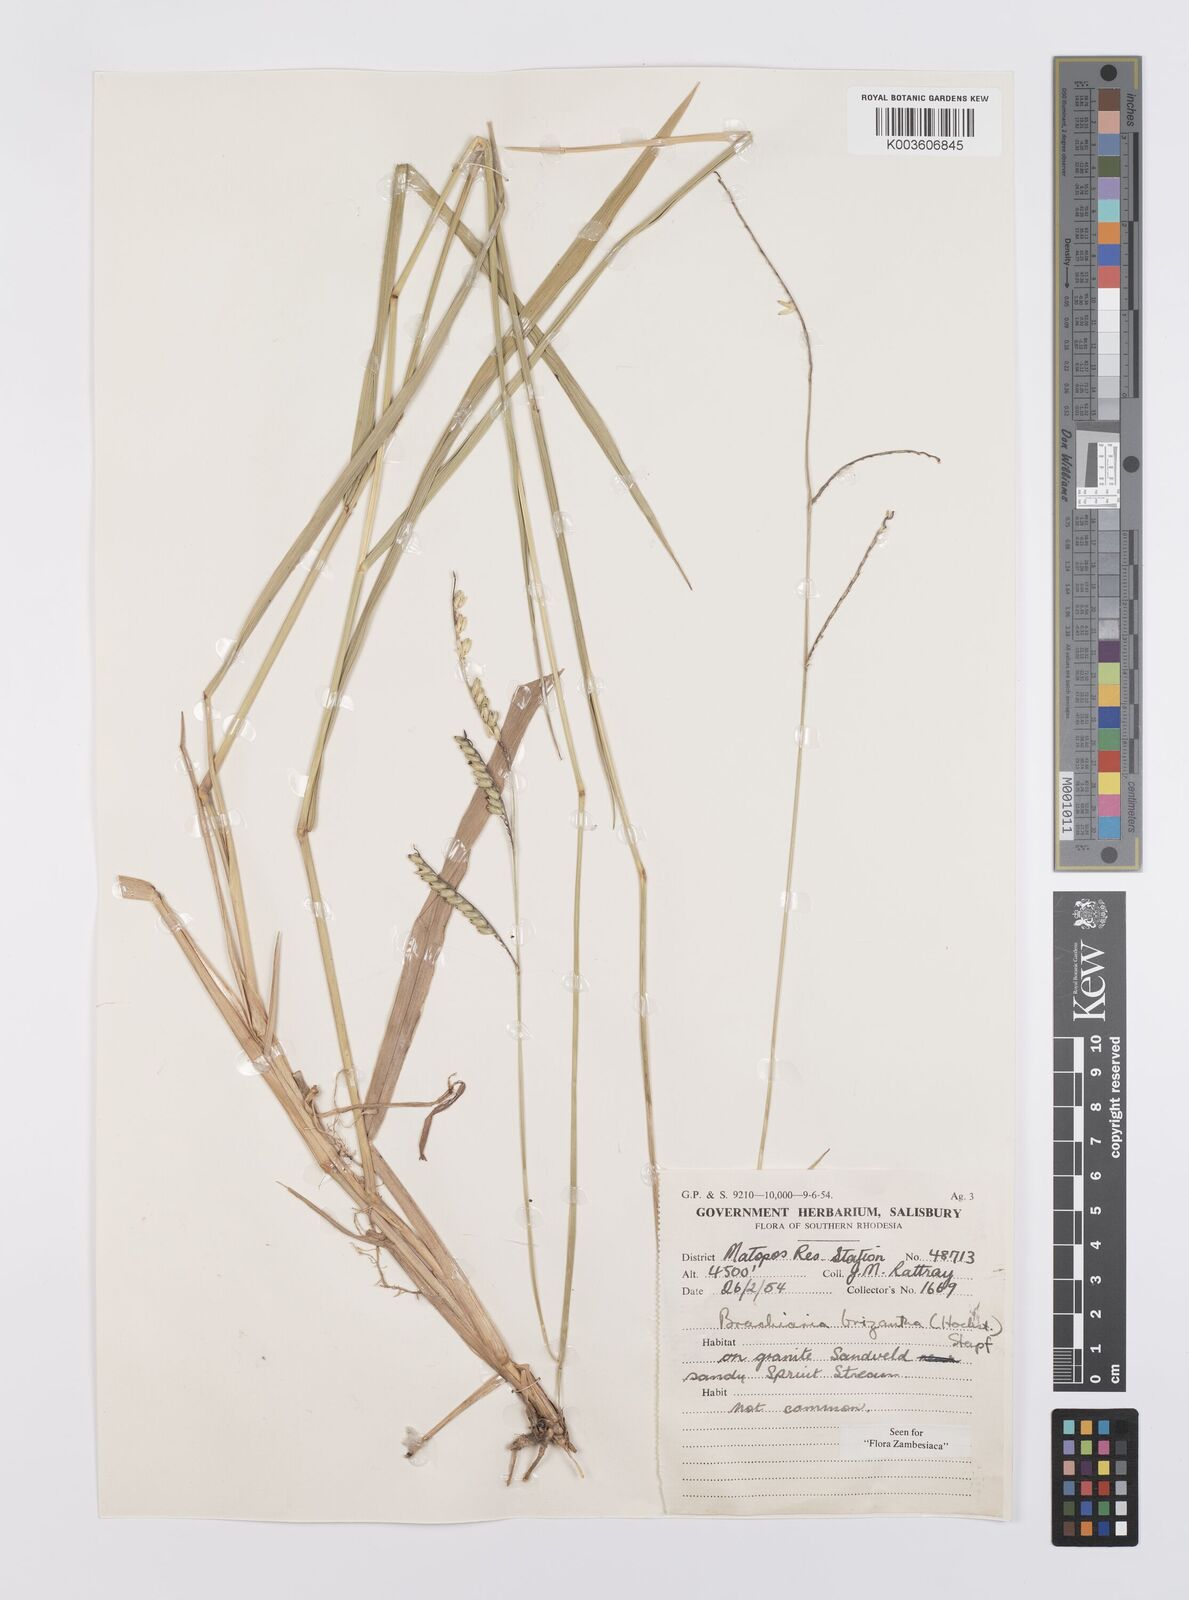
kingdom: Plantae
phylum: Tracheophyta
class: Liliopsida
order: Poales
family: Poaceae
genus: Urochloa
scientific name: Urochloa brizantha
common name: Palisade signalgrass
